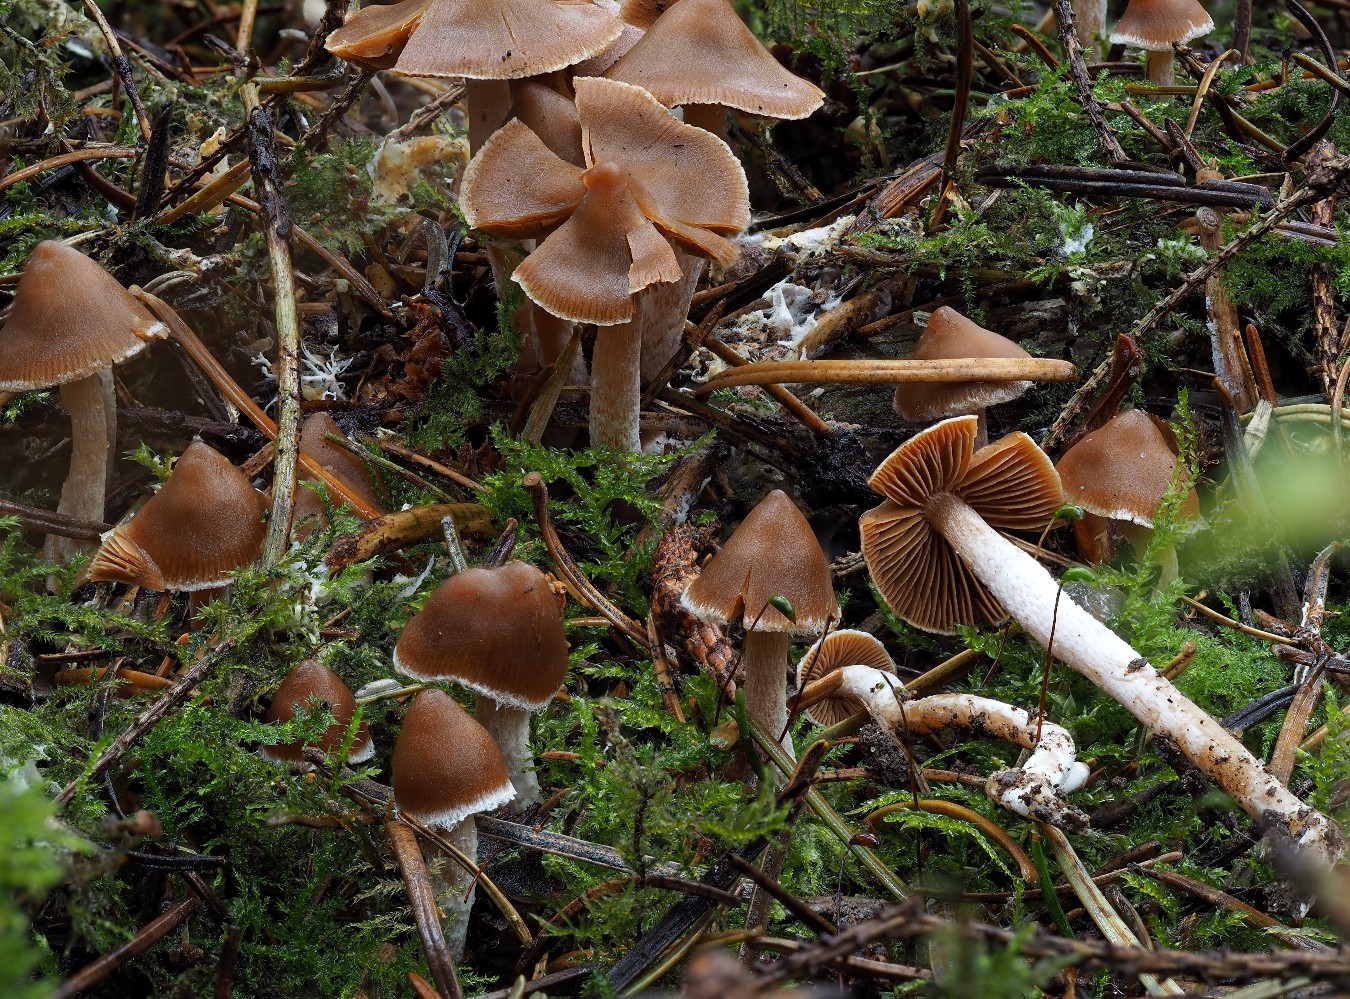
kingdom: Fungi
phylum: Basidiomycota
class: Agaricomycetes
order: Agaricales
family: Cortinariaceae
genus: Cortinarius
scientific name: Cortinarius
